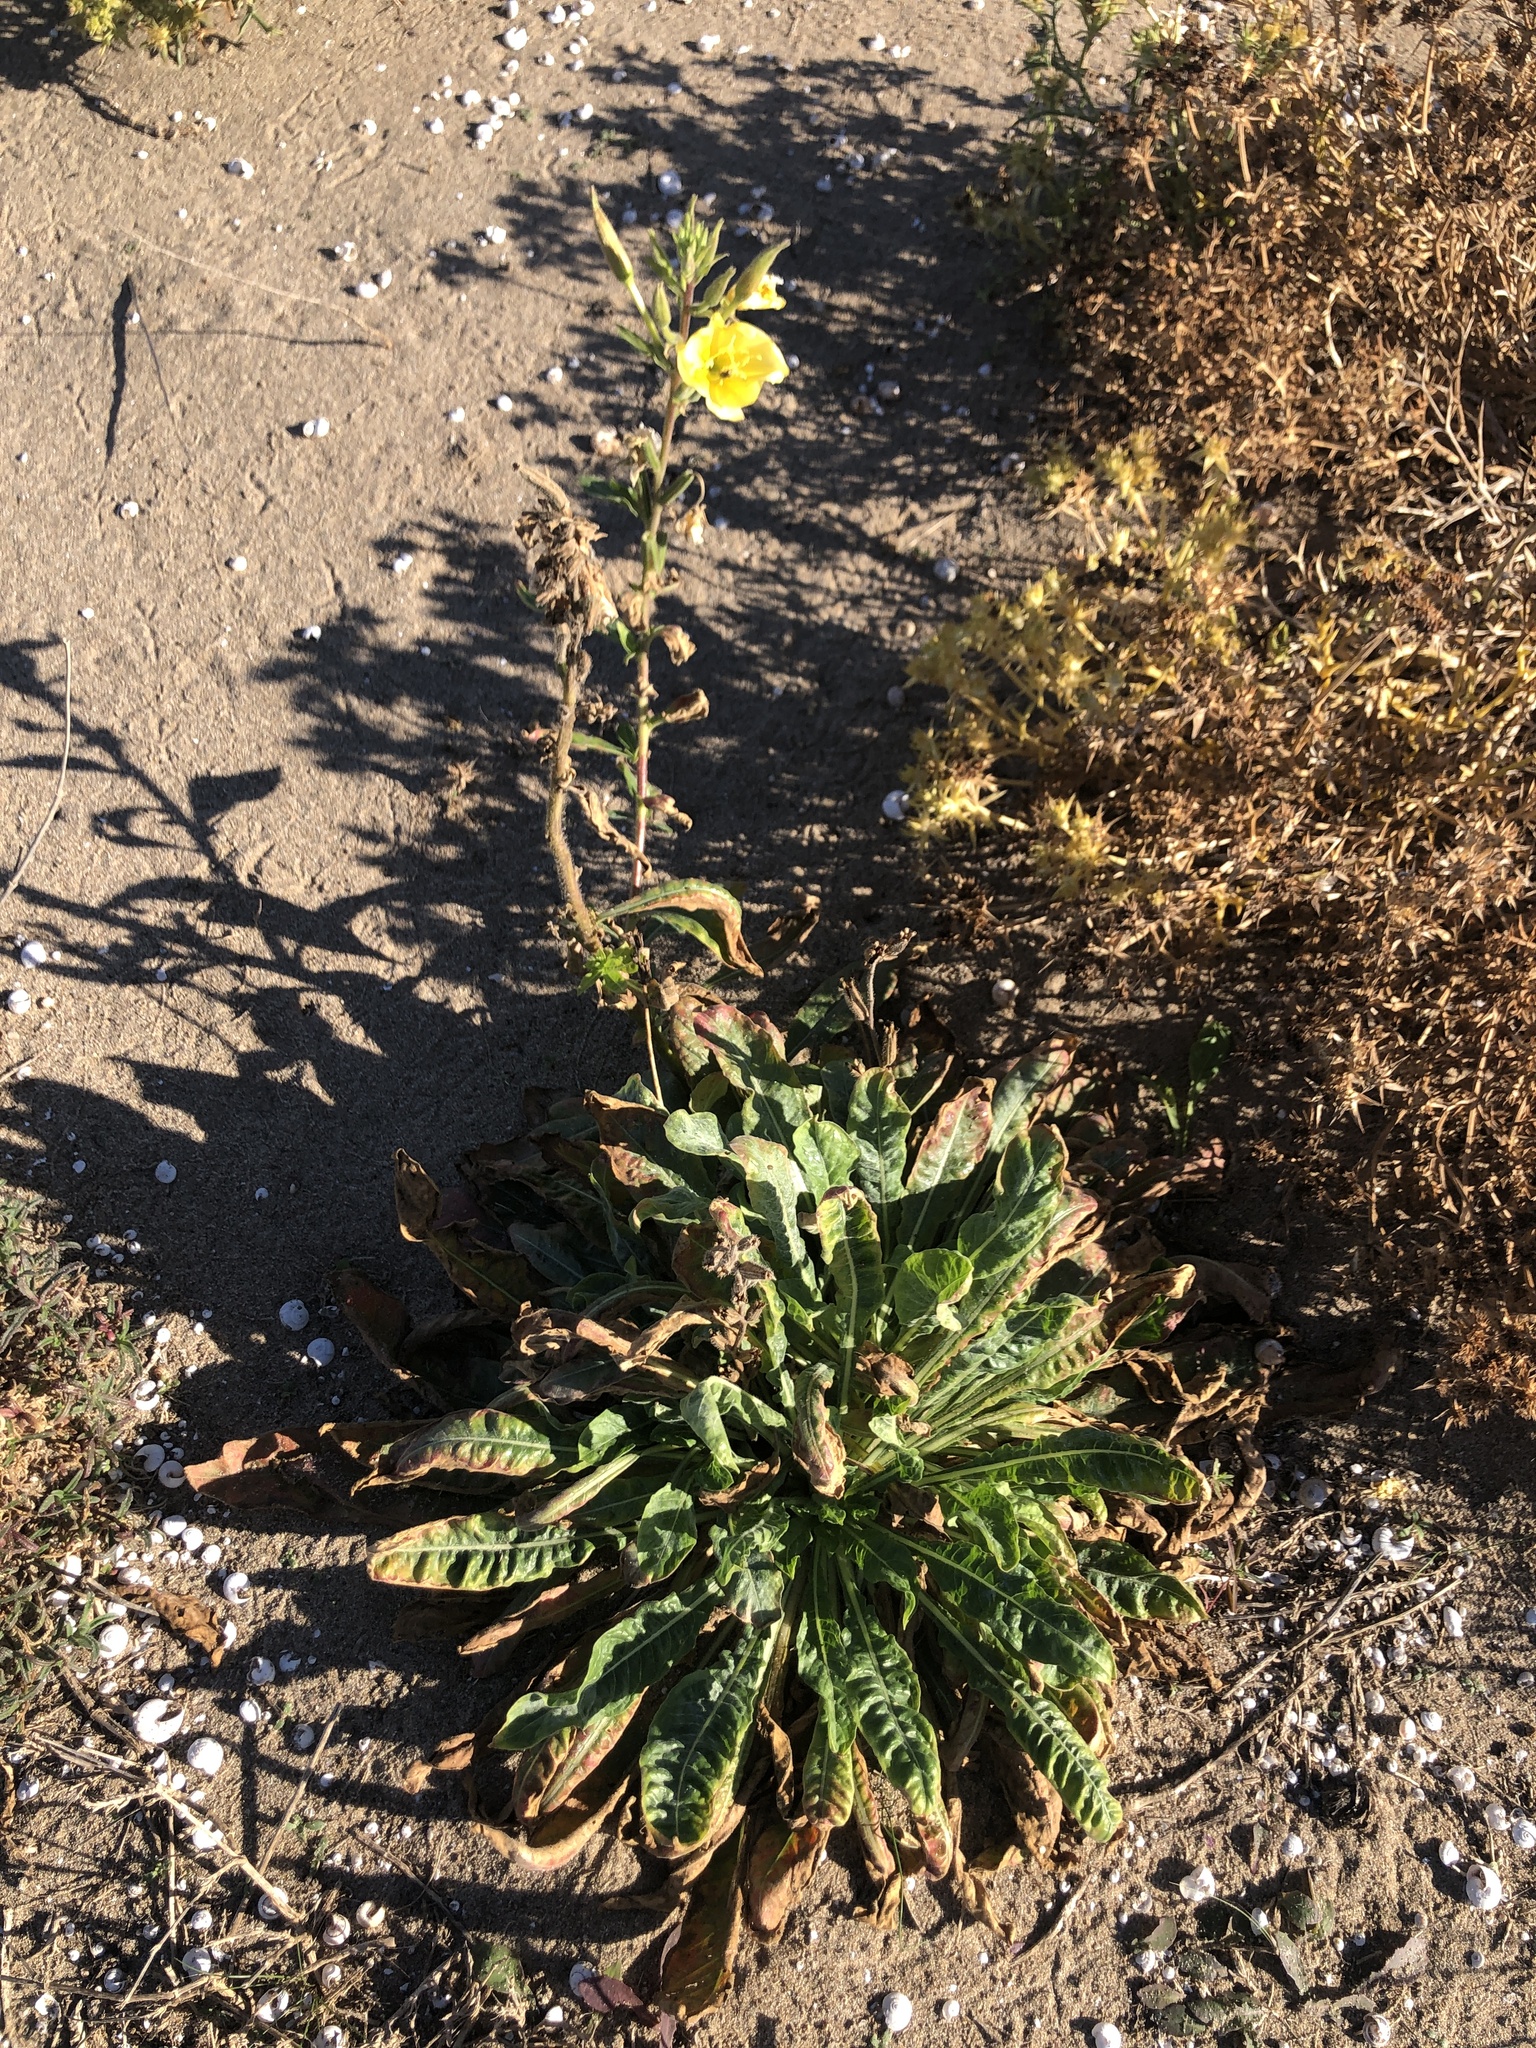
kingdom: Plantae
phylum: Tracheophyta
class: Magnoliopsida
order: Myrtales
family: Onagraceae
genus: Oenothera
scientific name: Oenothera glazioviana
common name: Large-flowered evening-primrose
